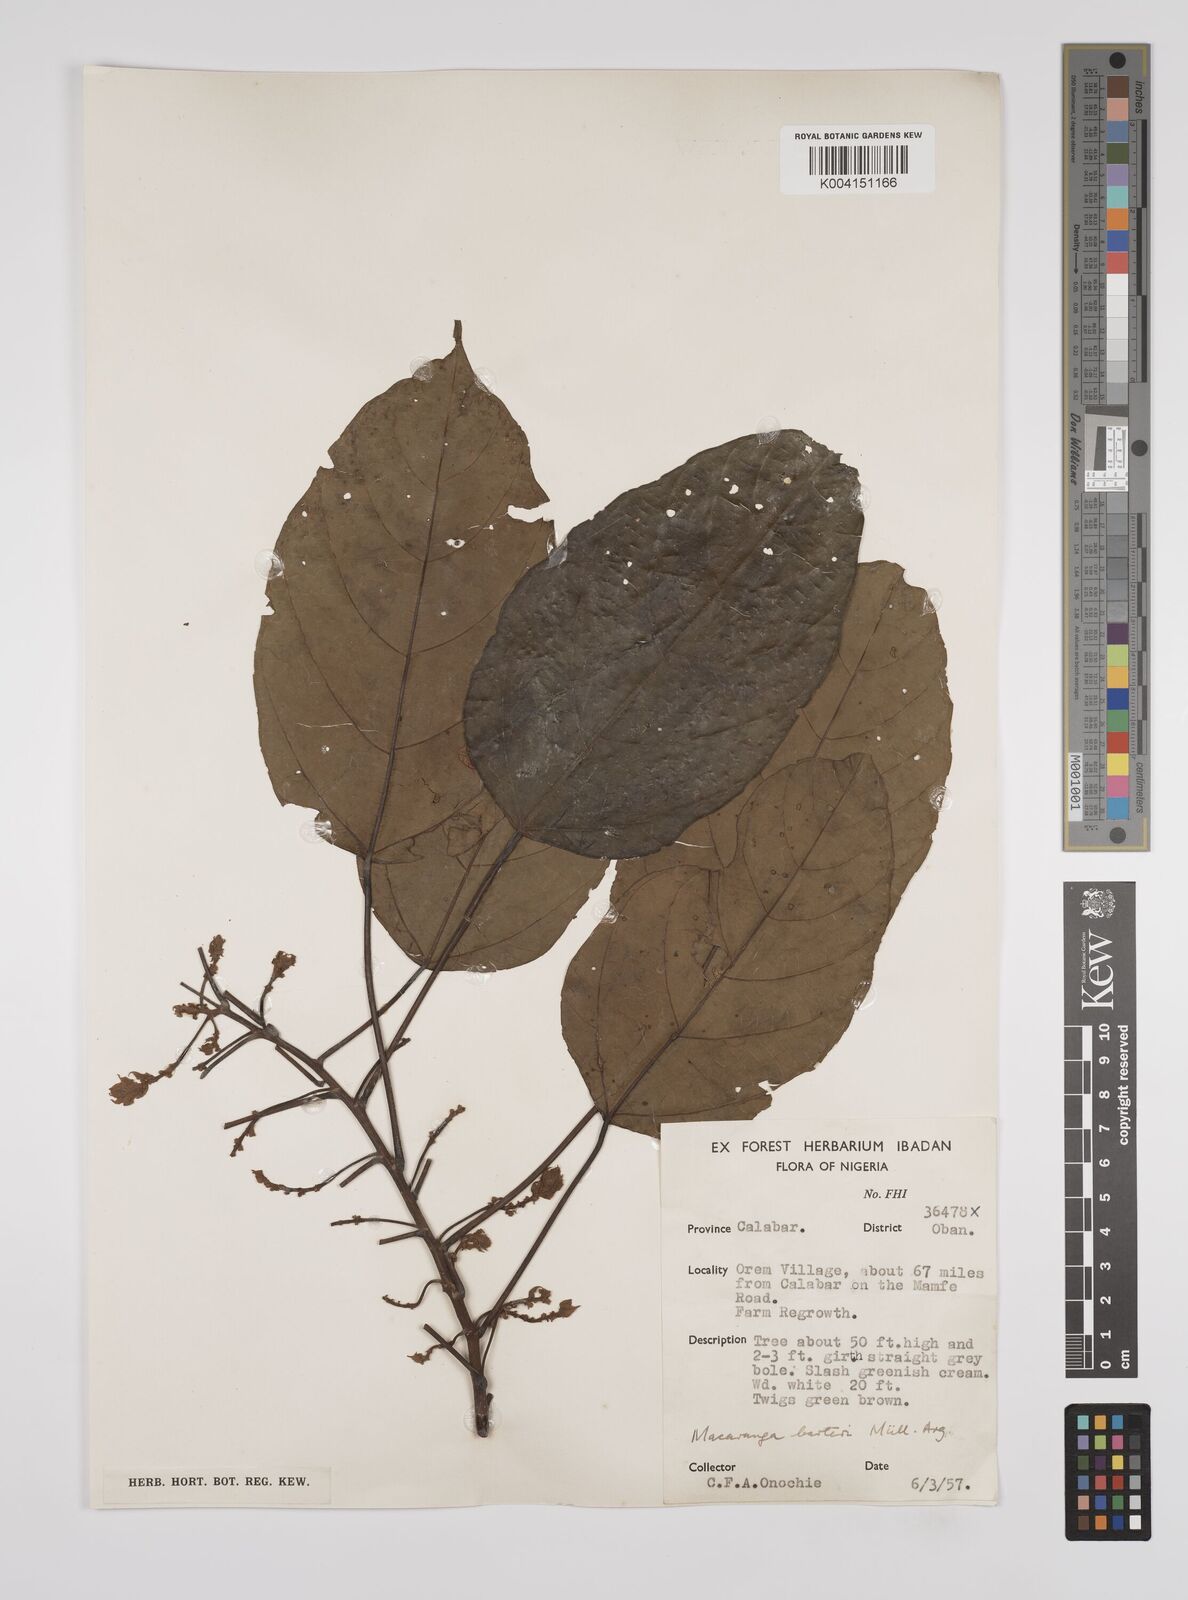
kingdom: Plantae
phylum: Tracheophyta
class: Magnoliopsida
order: Malpighiales
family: Euphorbiaceae
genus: Macaranga
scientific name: Macaranga barteri
